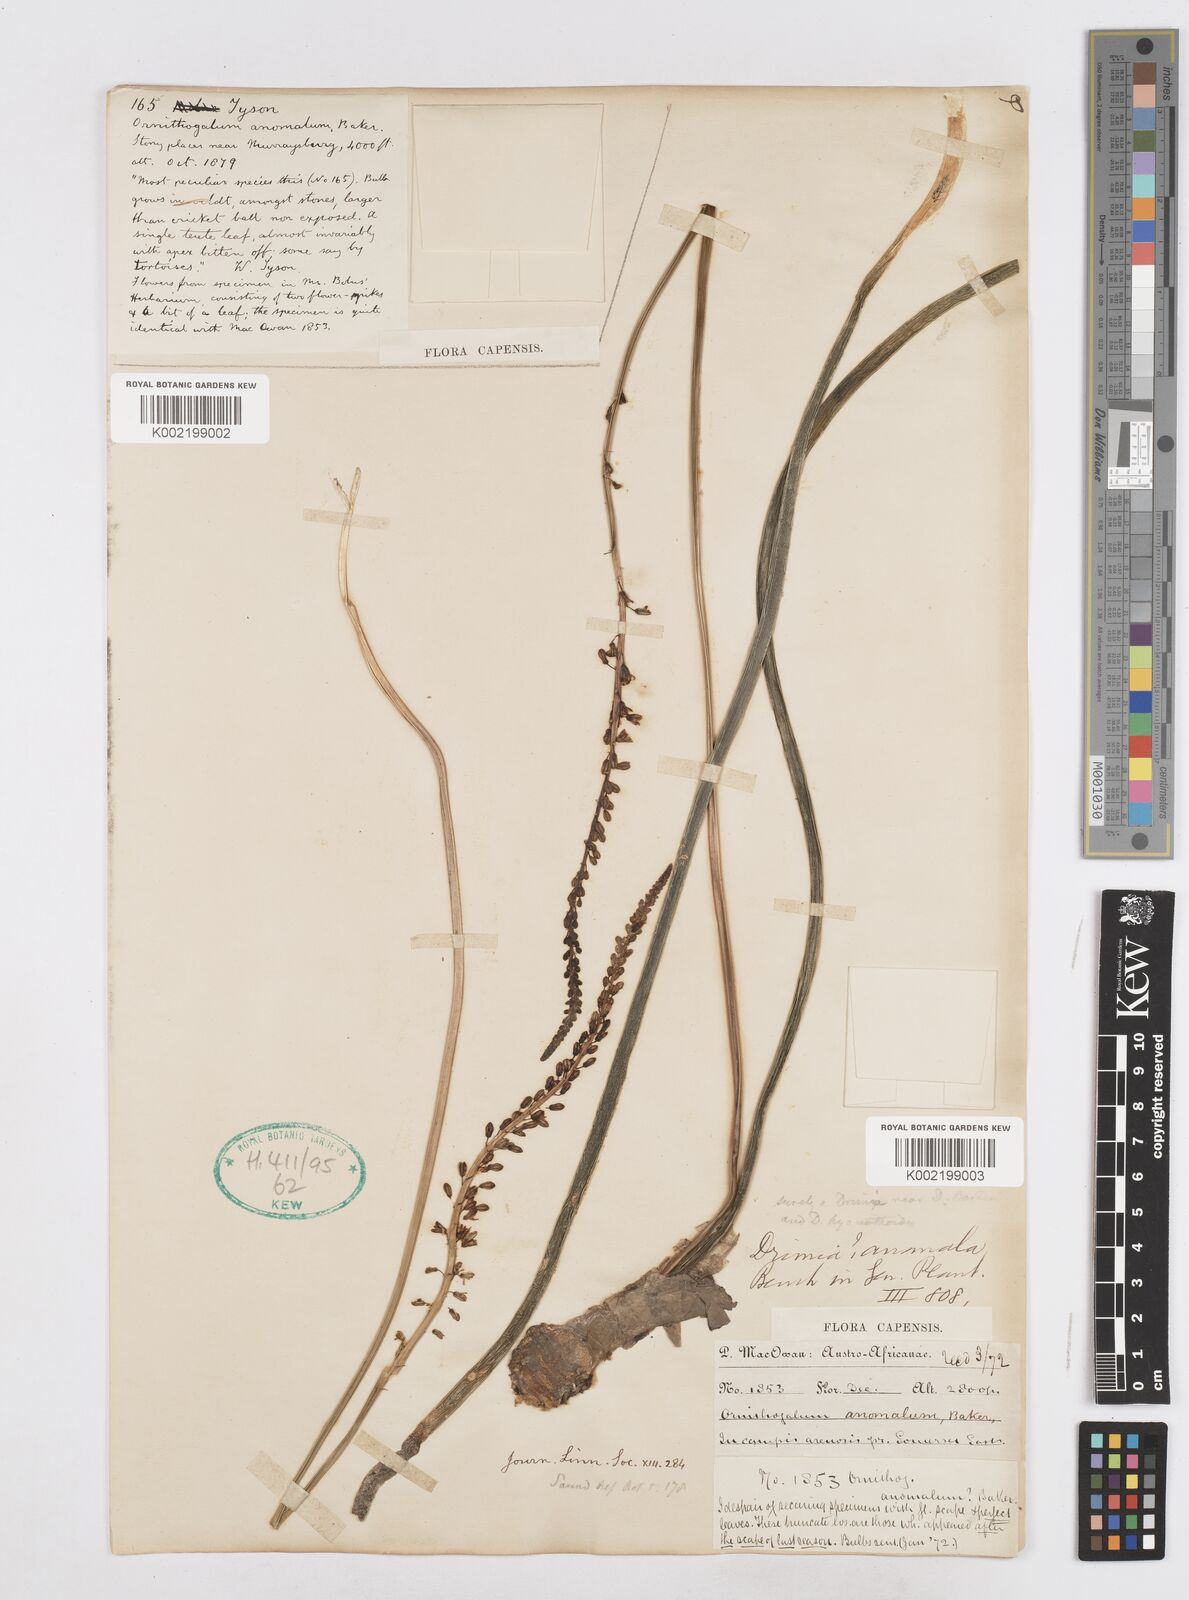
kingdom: Plantae
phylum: Tracheophyta
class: Liliopsida
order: Asparagales
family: Asparagaceae
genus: Drimia
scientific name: Drimia anomala
